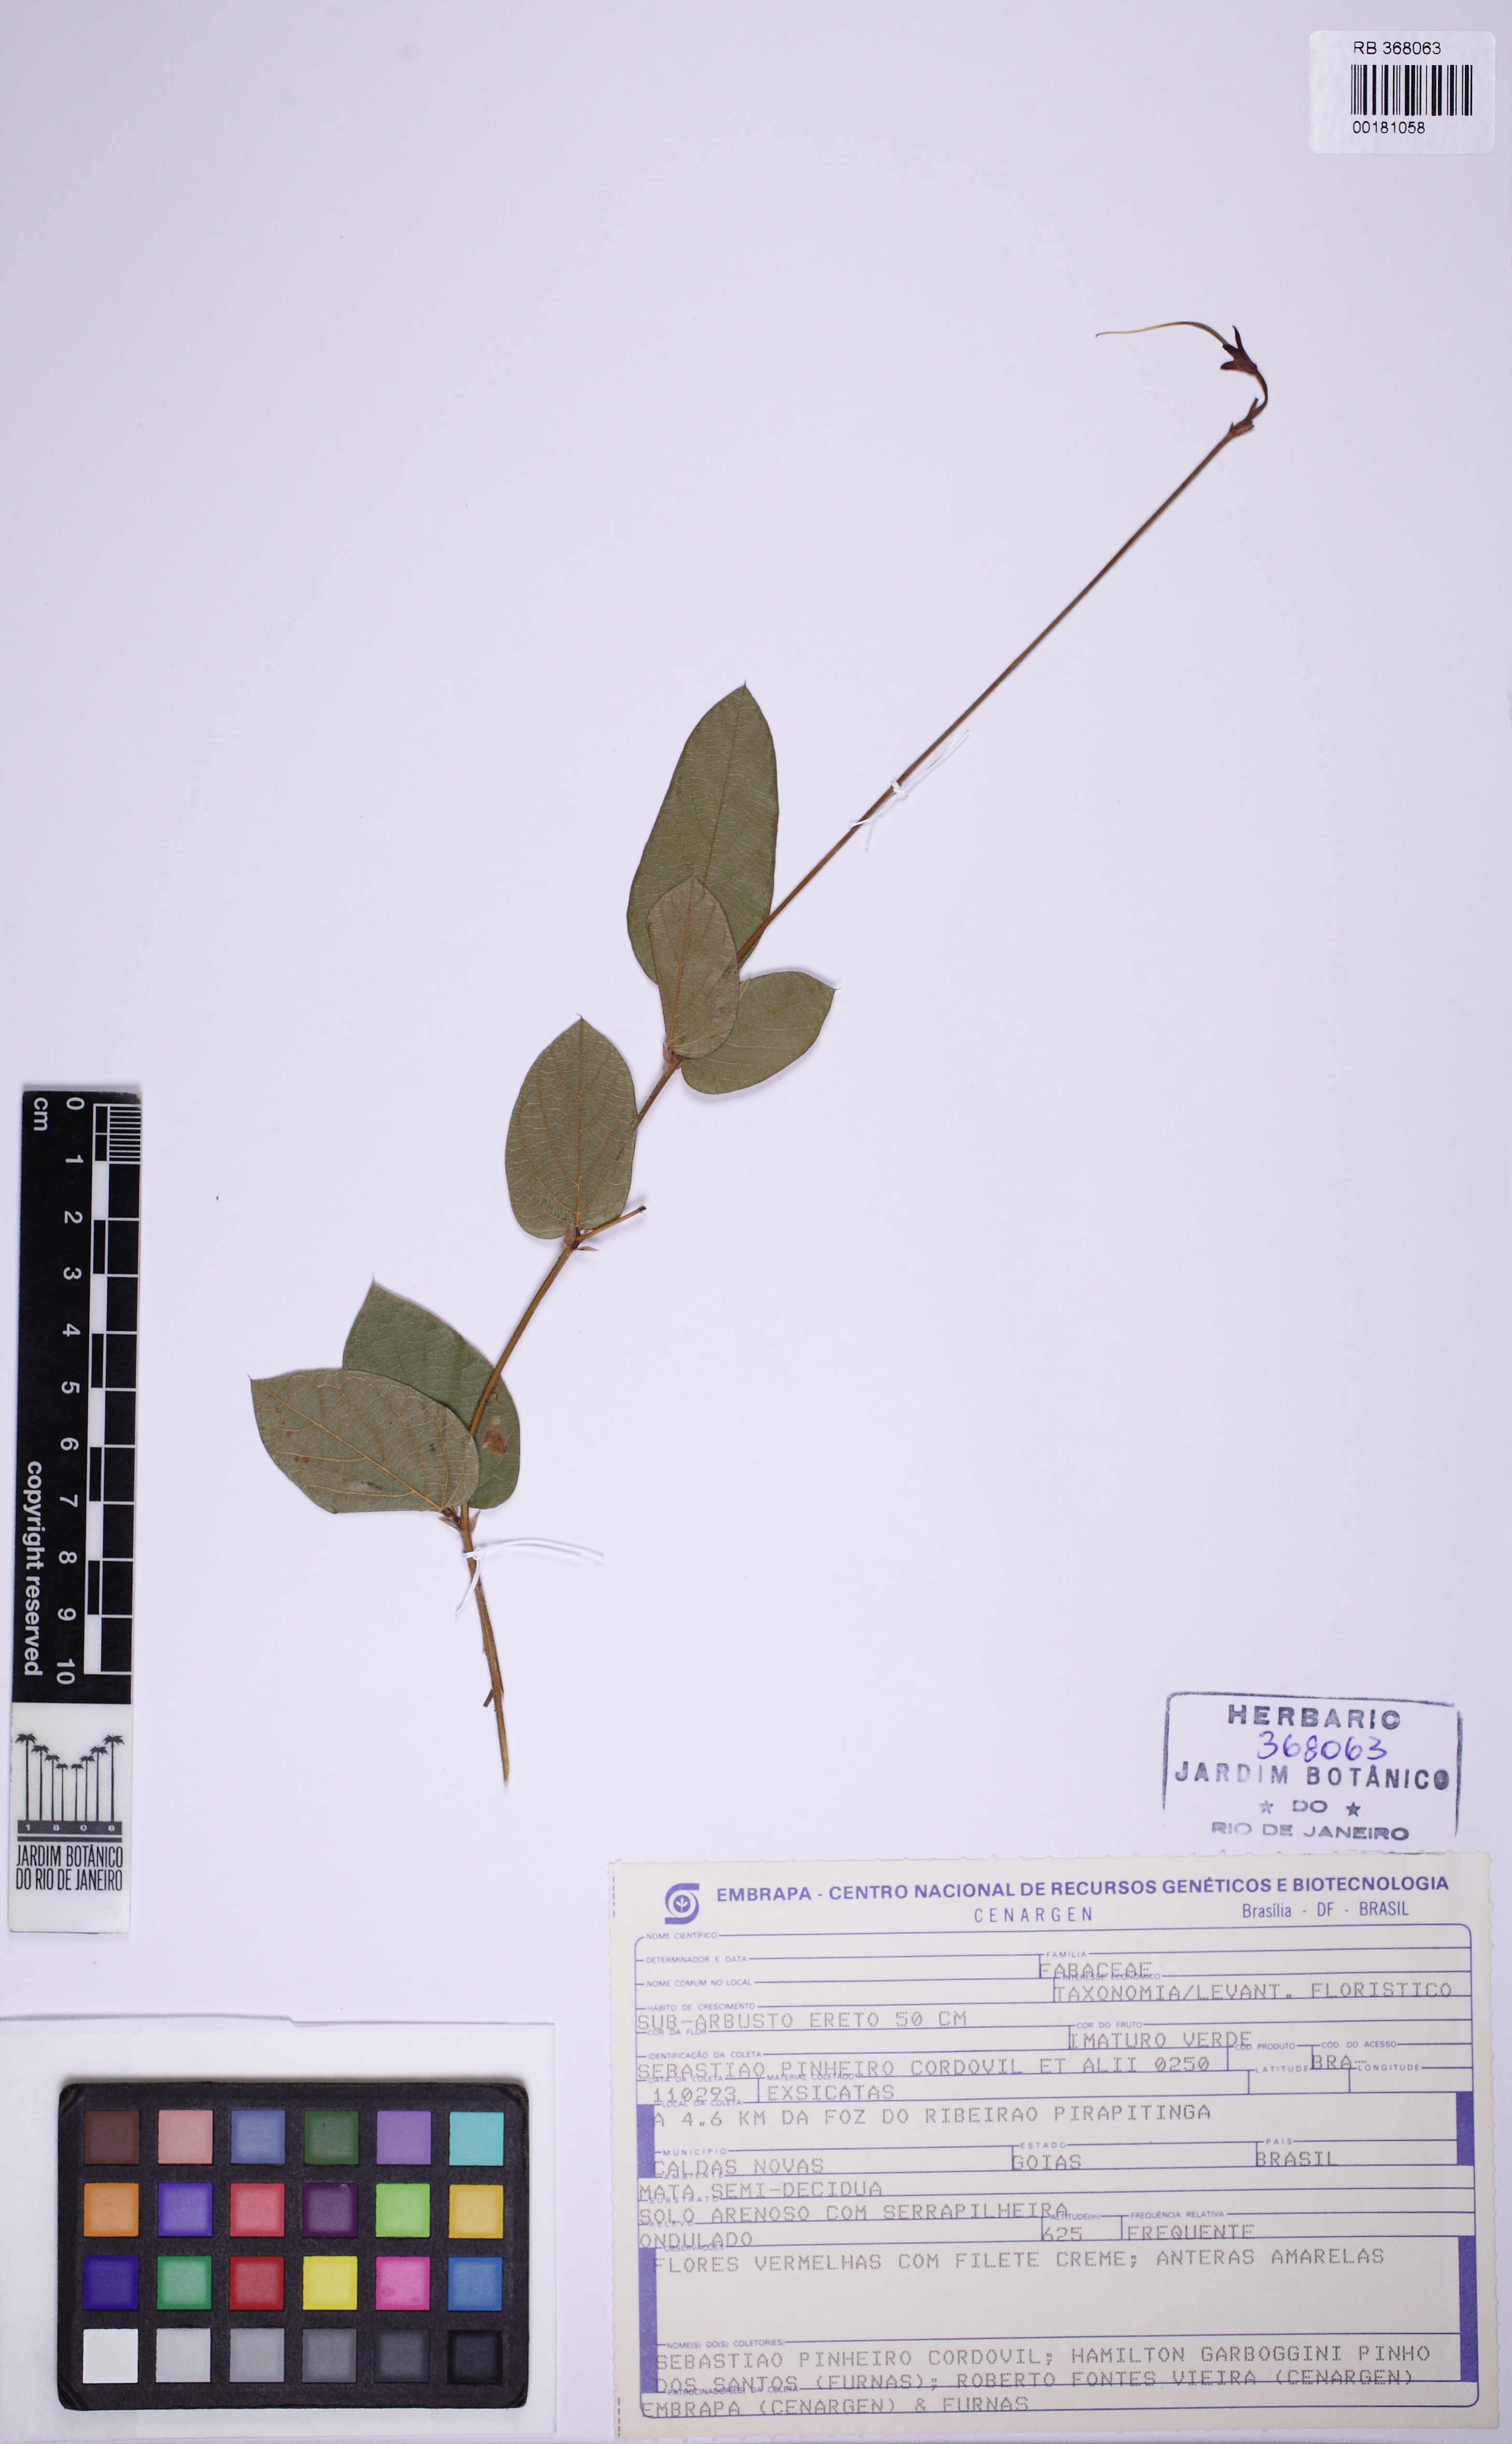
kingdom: Plantae
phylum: Tracheophyta
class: Magnoliopsida
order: Fabales
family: Fabaceae
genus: Periandra
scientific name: Periandra heterophylla
